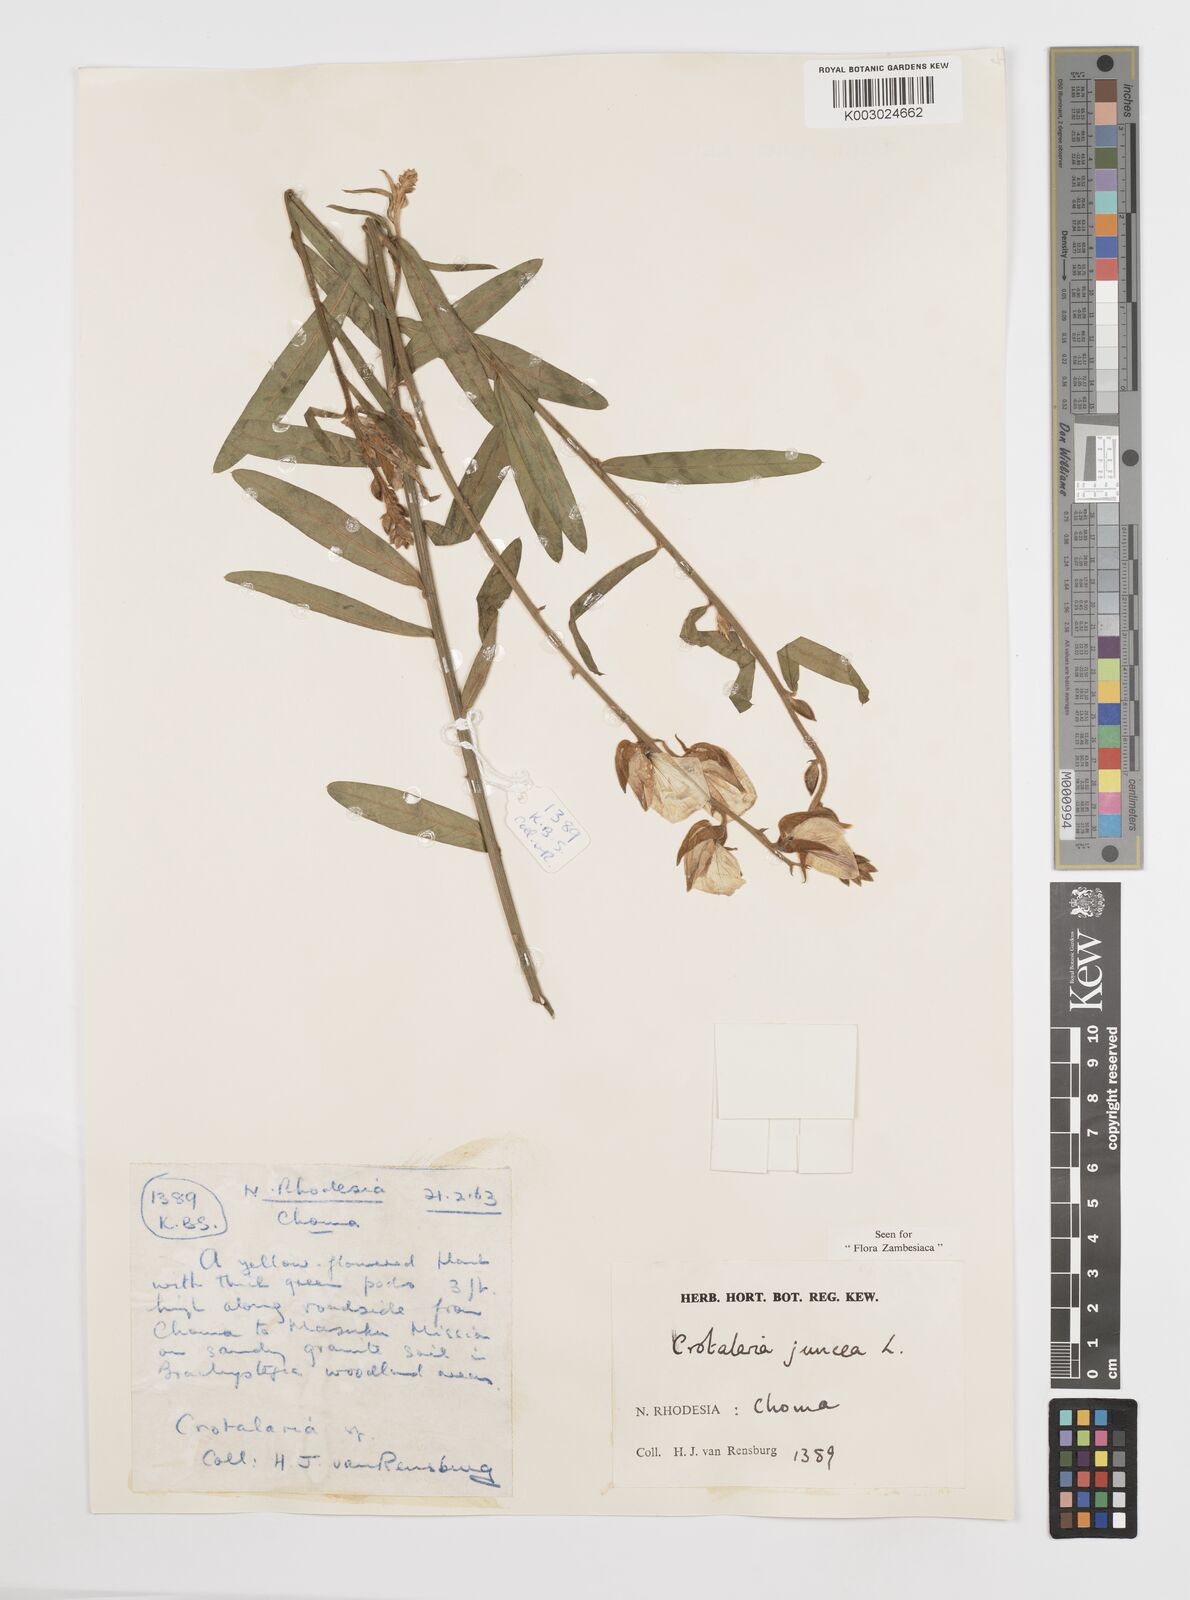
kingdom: Plantae
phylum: Tracheophyta
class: Magnoliopsida
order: Fabales
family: Fabaceae
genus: Crotalaria
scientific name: Crotalaria juncea
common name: Sunn hemp
